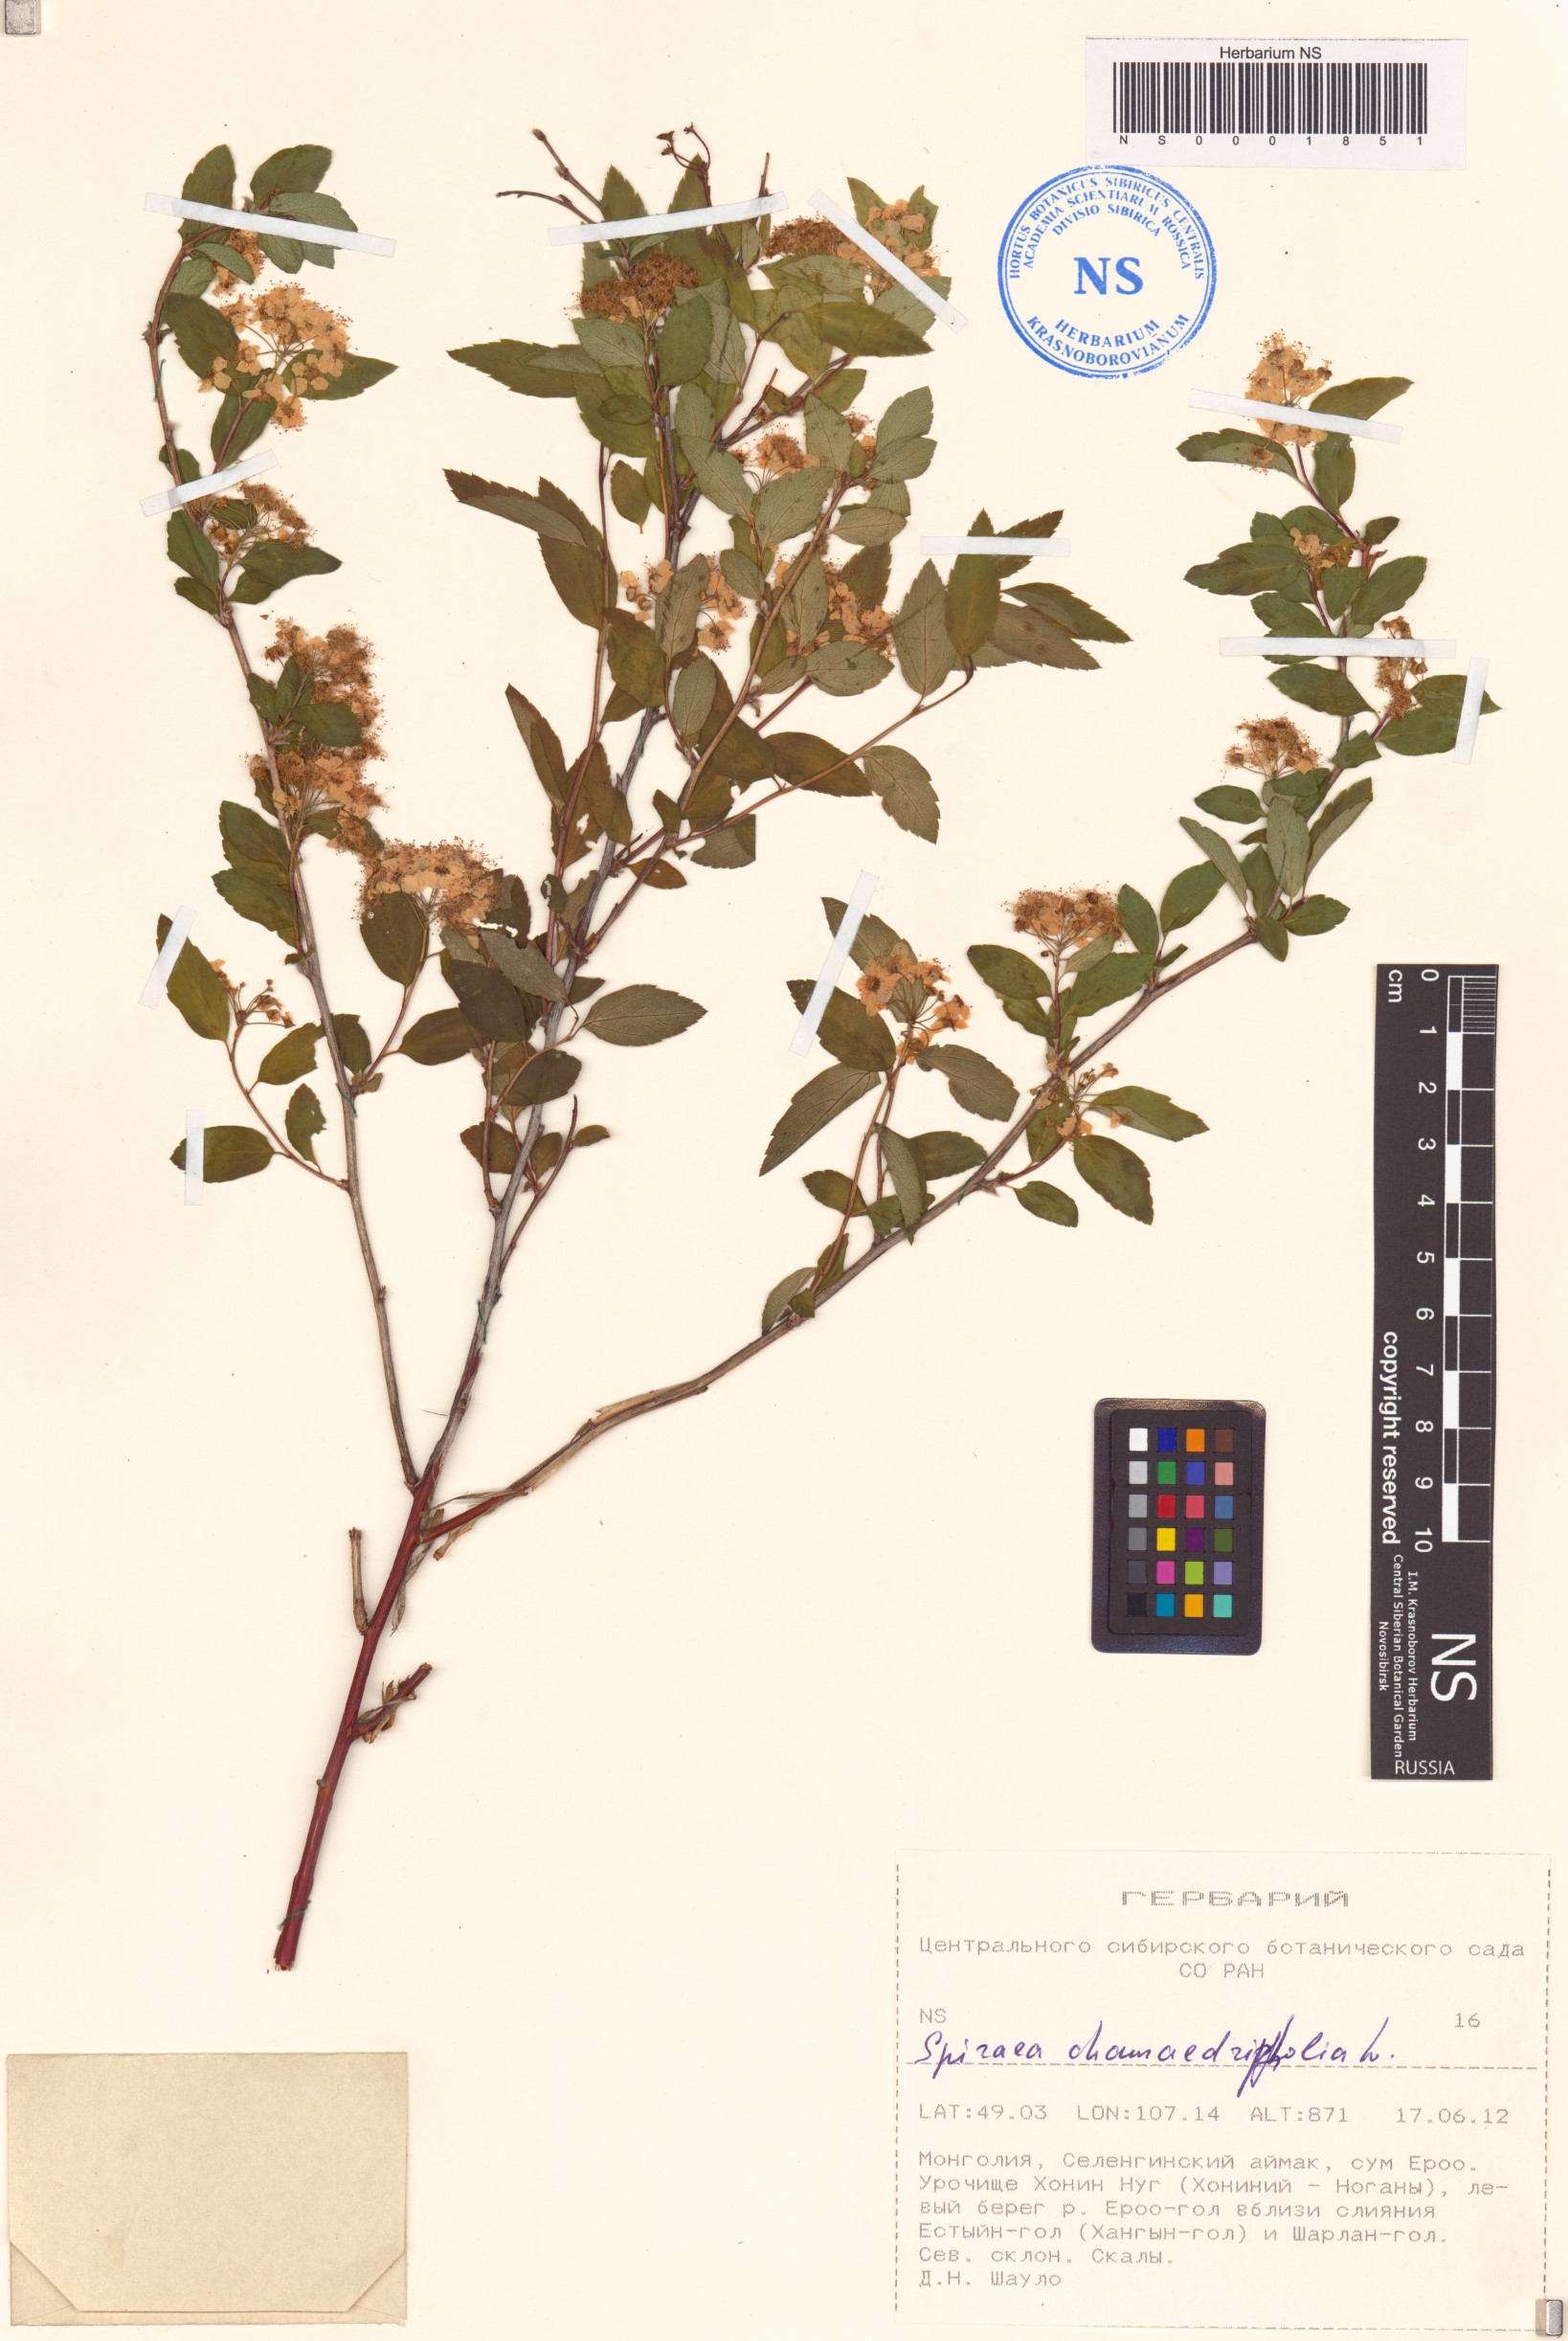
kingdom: Plantae
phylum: Tracheophyta
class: Magnoliopsida
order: Rosales
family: Rosaceae
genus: Spiraea
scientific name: Spiraea chamaedryfolia
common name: Elm-leaved spiraea
